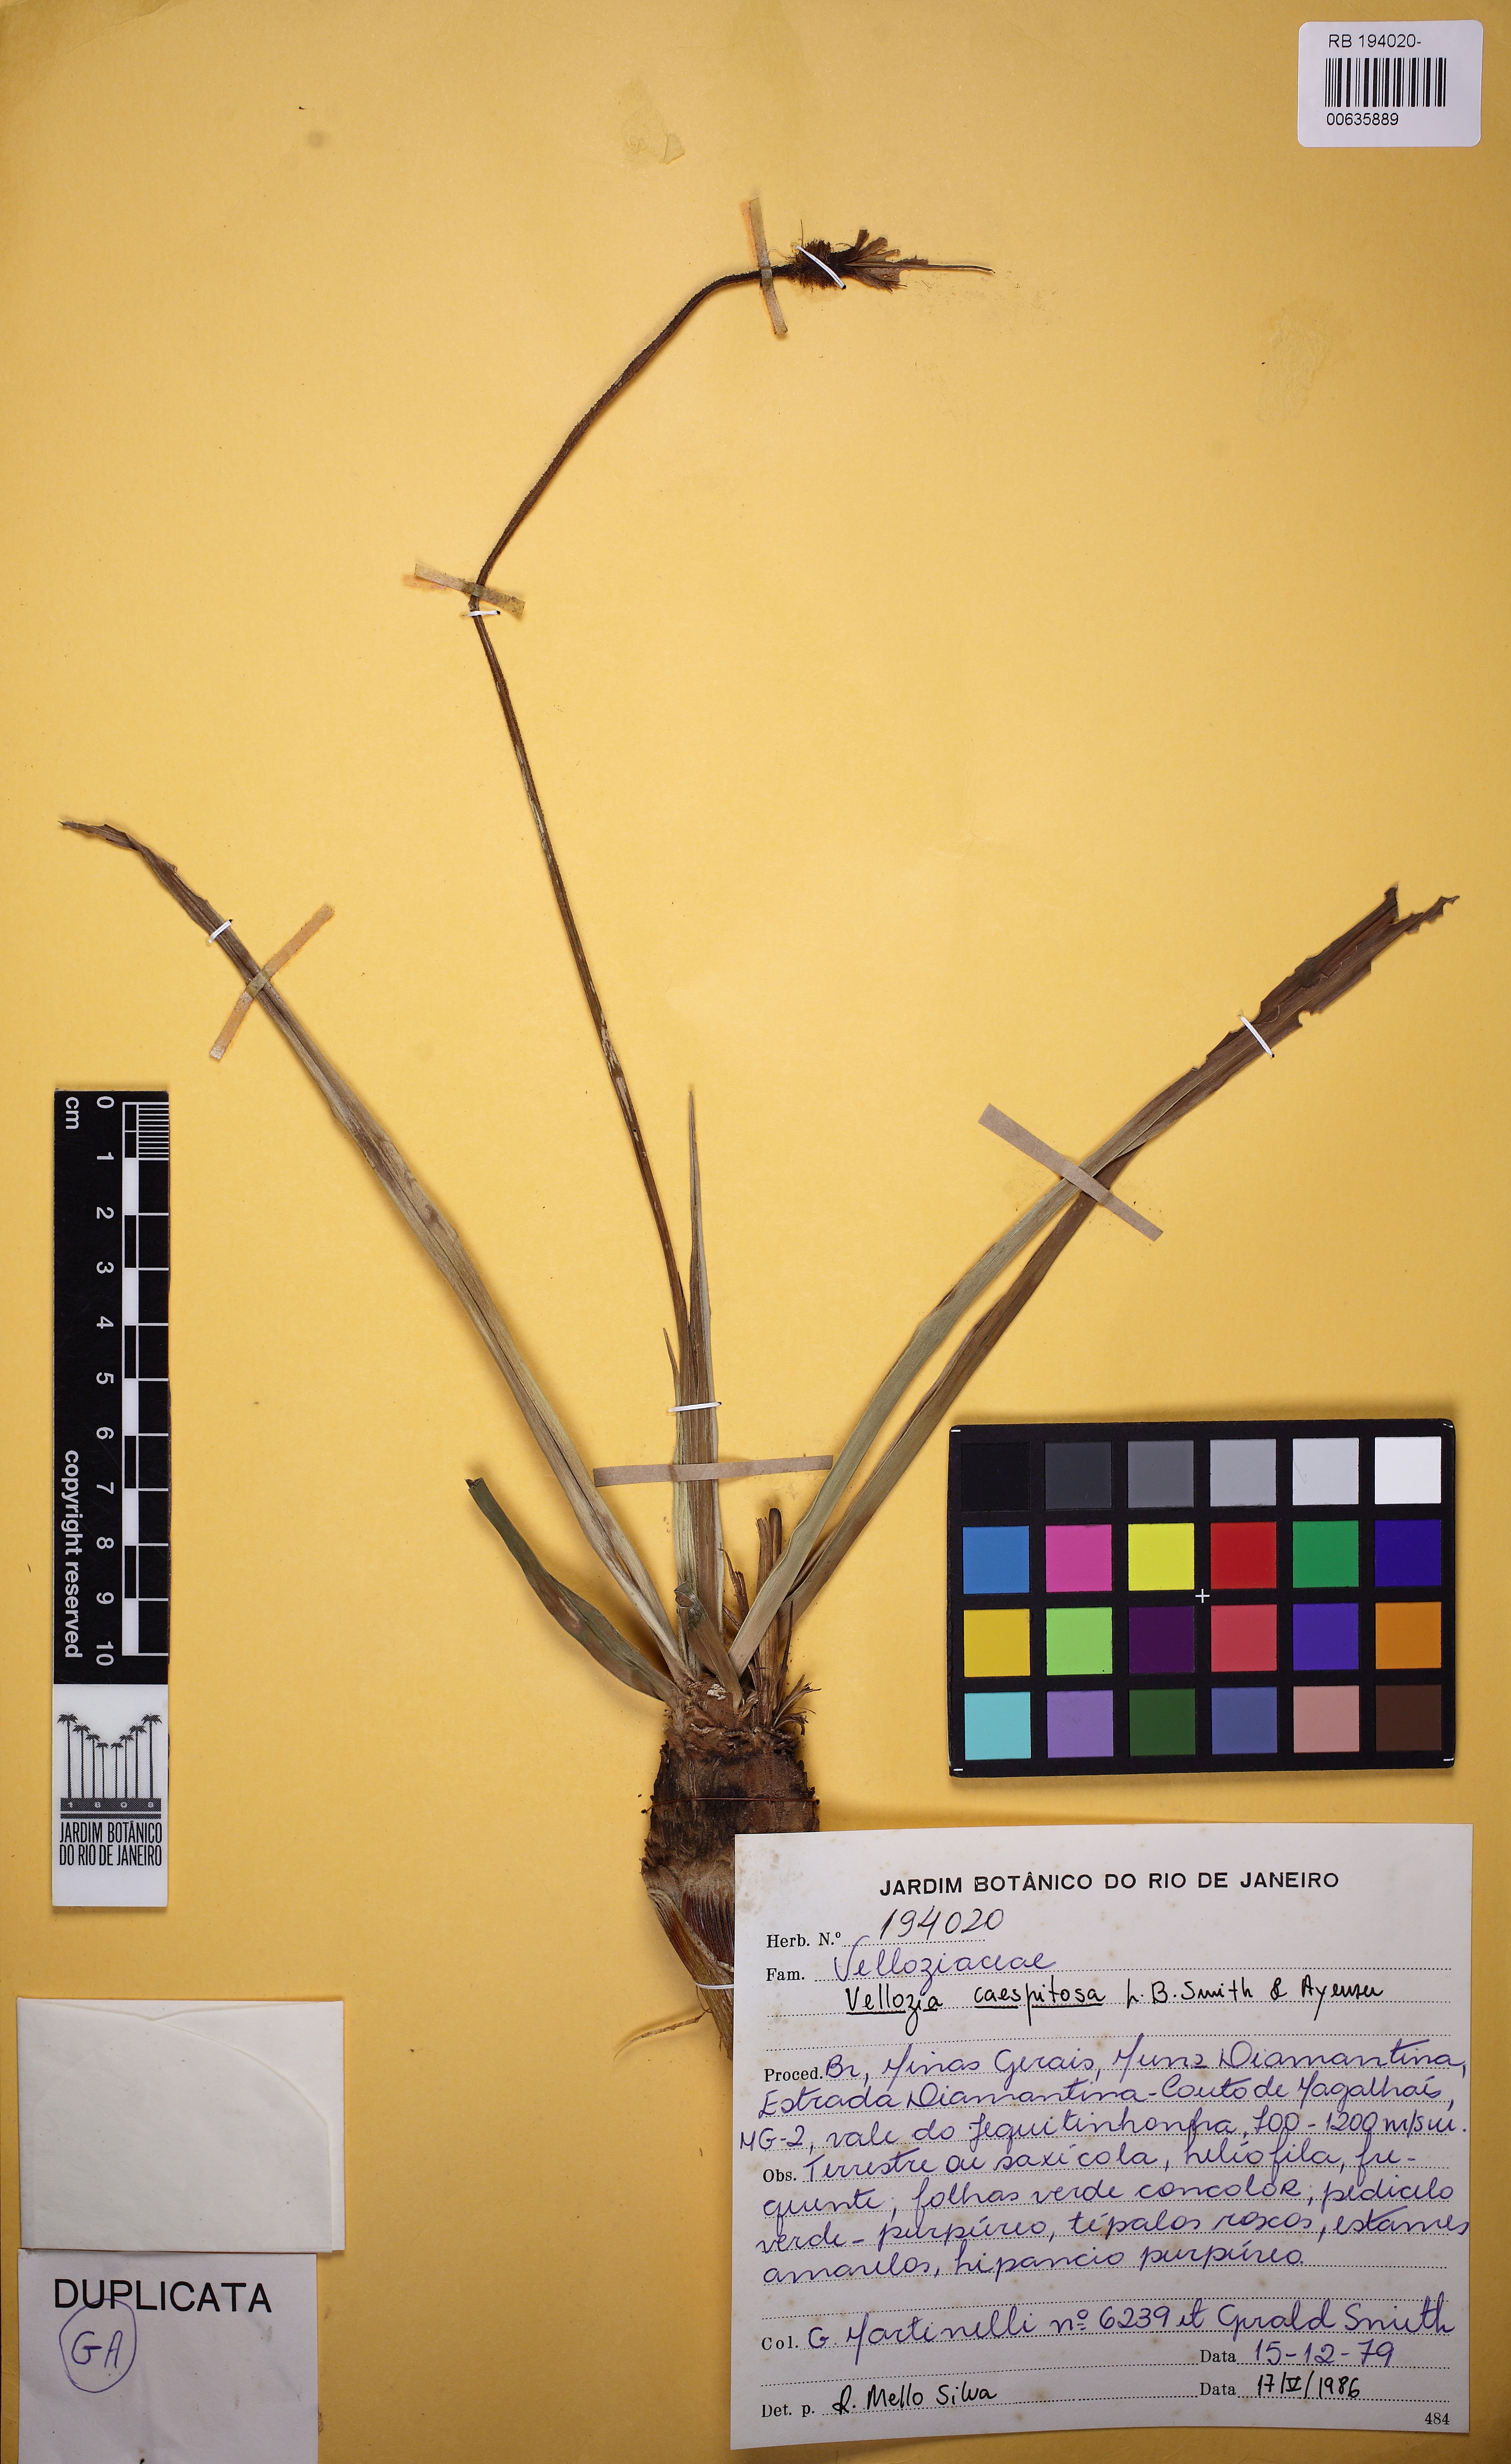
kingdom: Plantae
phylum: Tracheophyta
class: Liliopsida
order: Pandanales
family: Velloziaceae
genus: Vellozia
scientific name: Vellozia caespitosa
